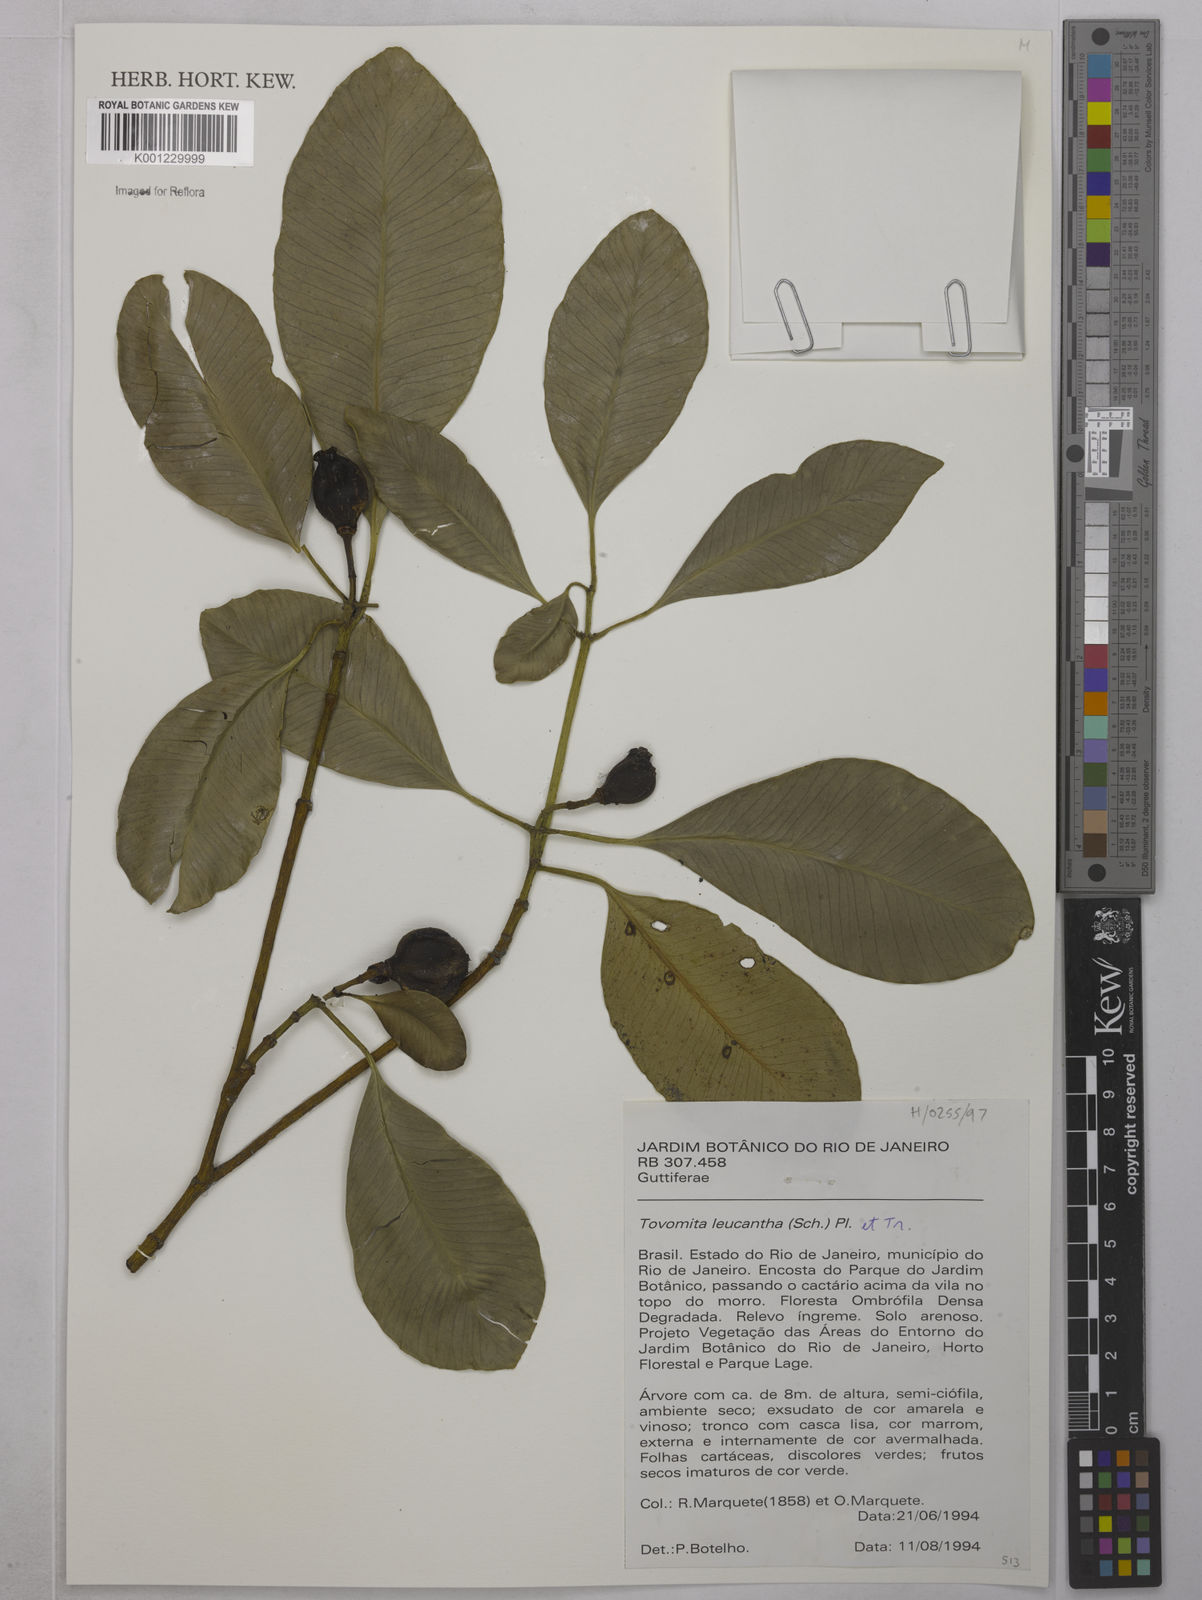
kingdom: Plantae
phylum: Tracheophyta
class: Magnoliopsida
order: Malpighiales
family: Clusiaceae
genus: Tovomita
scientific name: Tovomita leucantha
